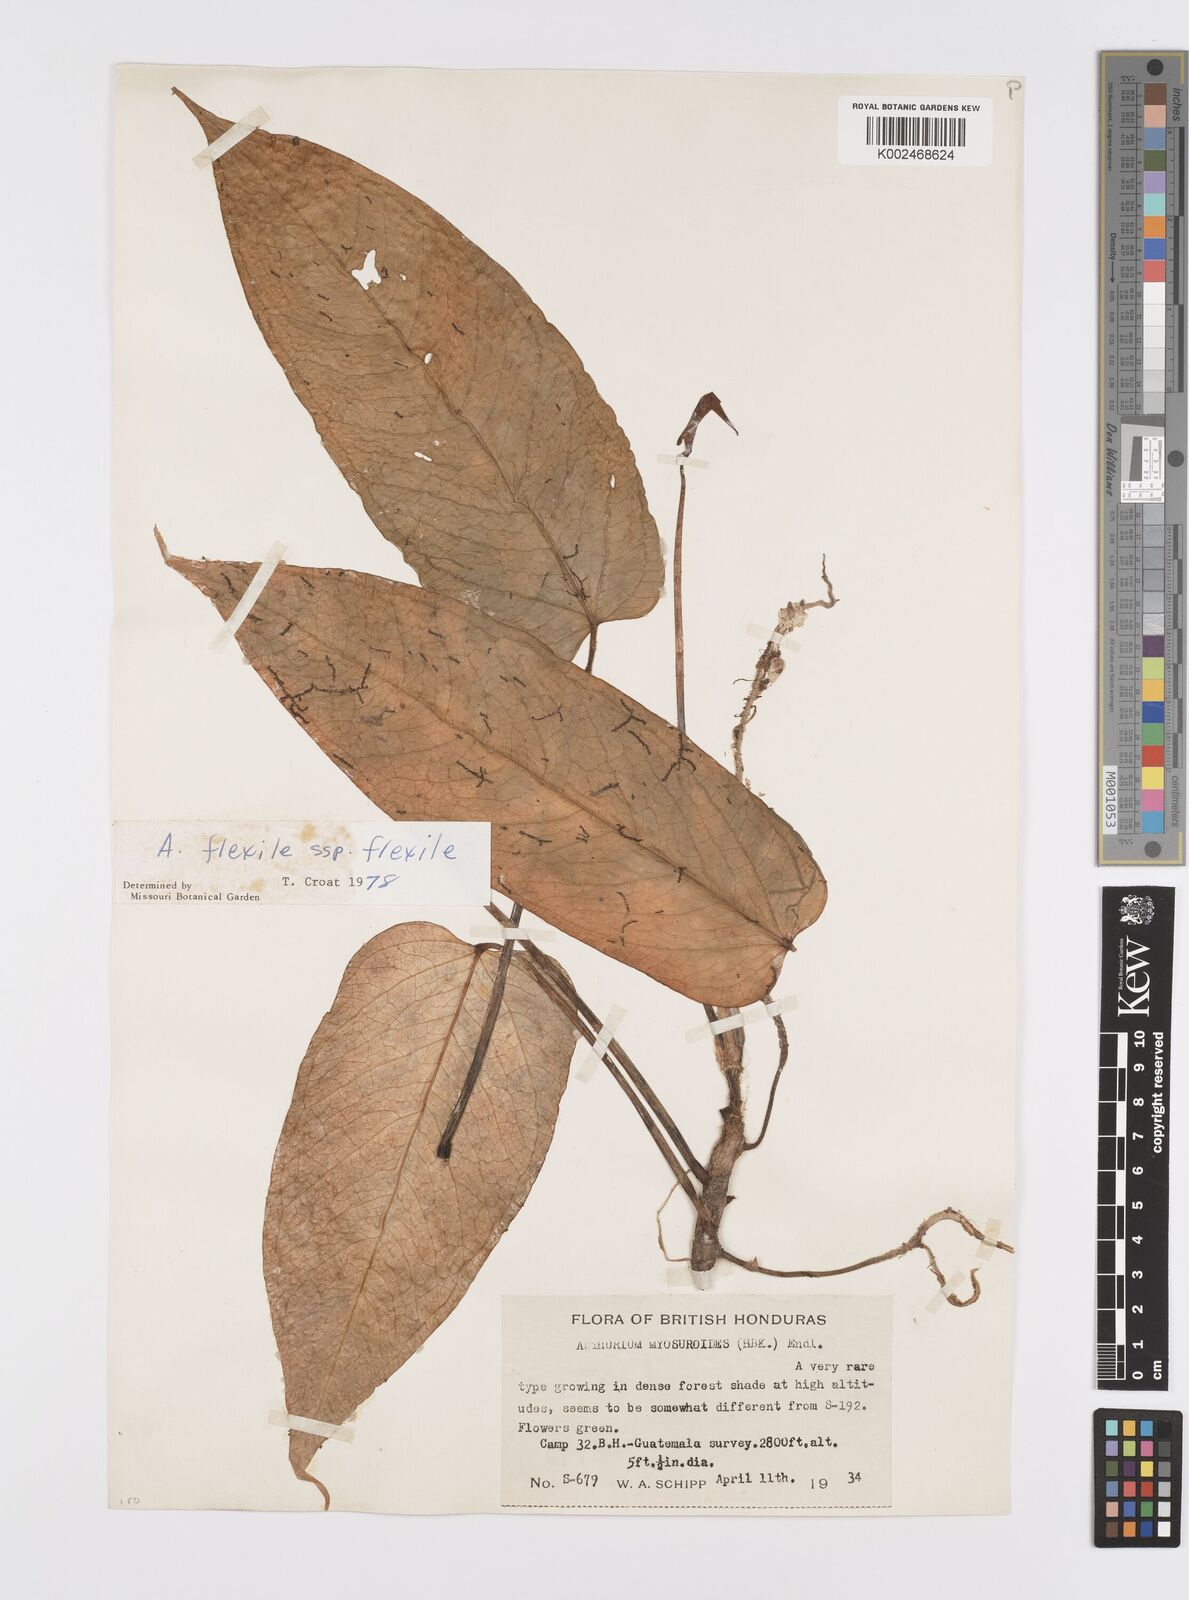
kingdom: Plantae
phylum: Tracheophyta
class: Liliopsida
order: Alismatales
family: Araceae
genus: Anthurium
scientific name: Anthurium flexile
